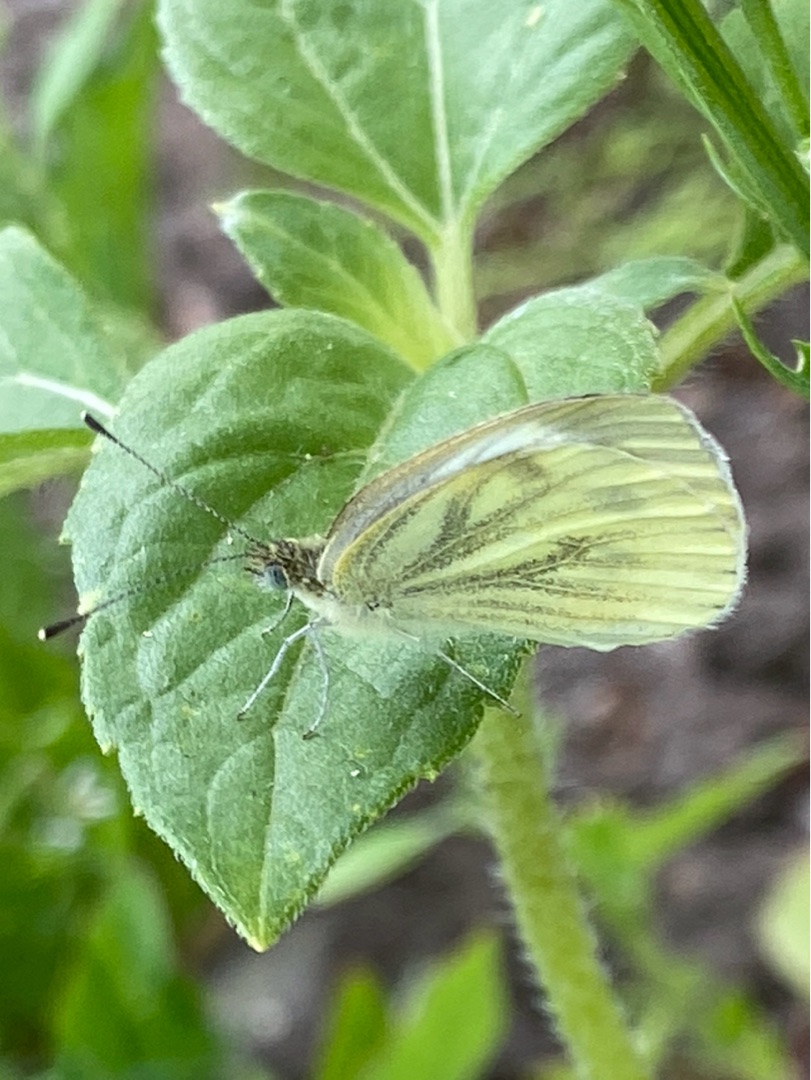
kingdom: Animalia
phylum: Arthropoda
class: Insecta
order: Lepidoptera
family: Pieridae
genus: Pieris
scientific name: Pieris napi
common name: Grønåret kålsommerfugl
